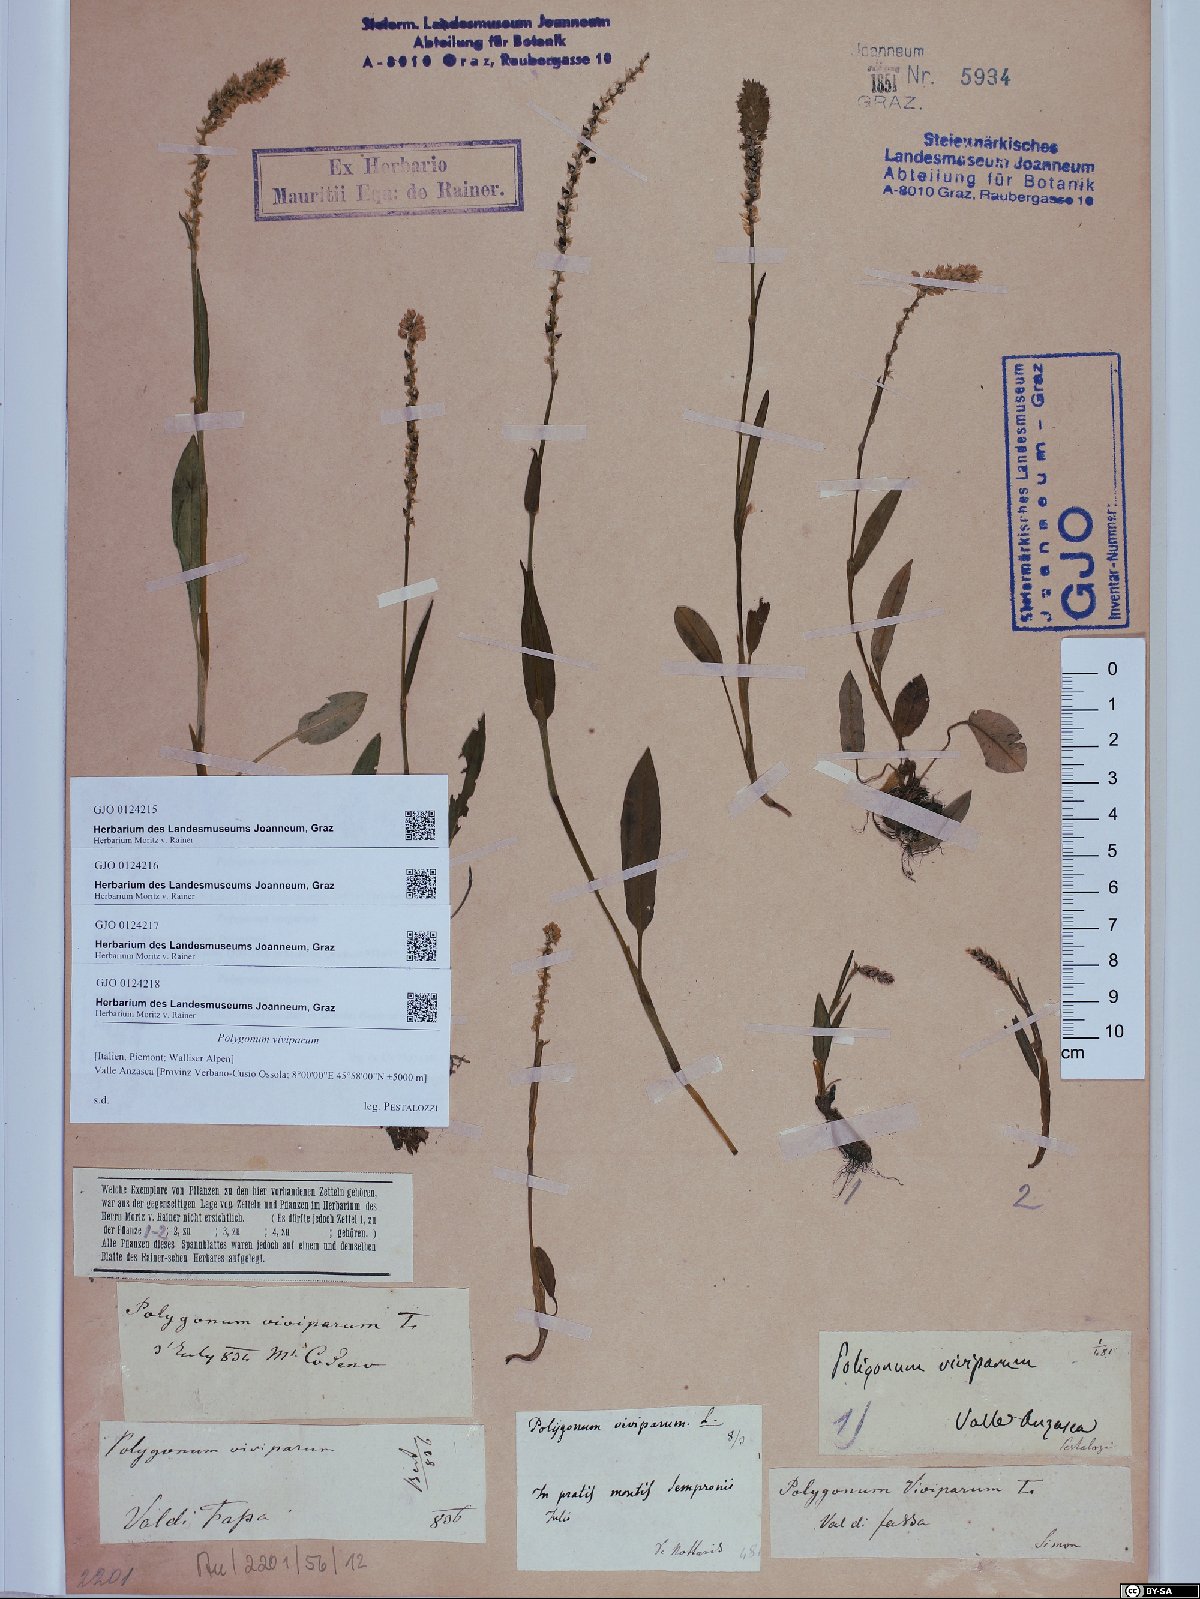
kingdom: Plantae
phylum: Tracheophyta
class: Magnoliopsida
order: Caryophyllales
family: Polygonaceae
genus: Bistorta
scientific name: Bistorta vivipara
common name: Alpine bistort
